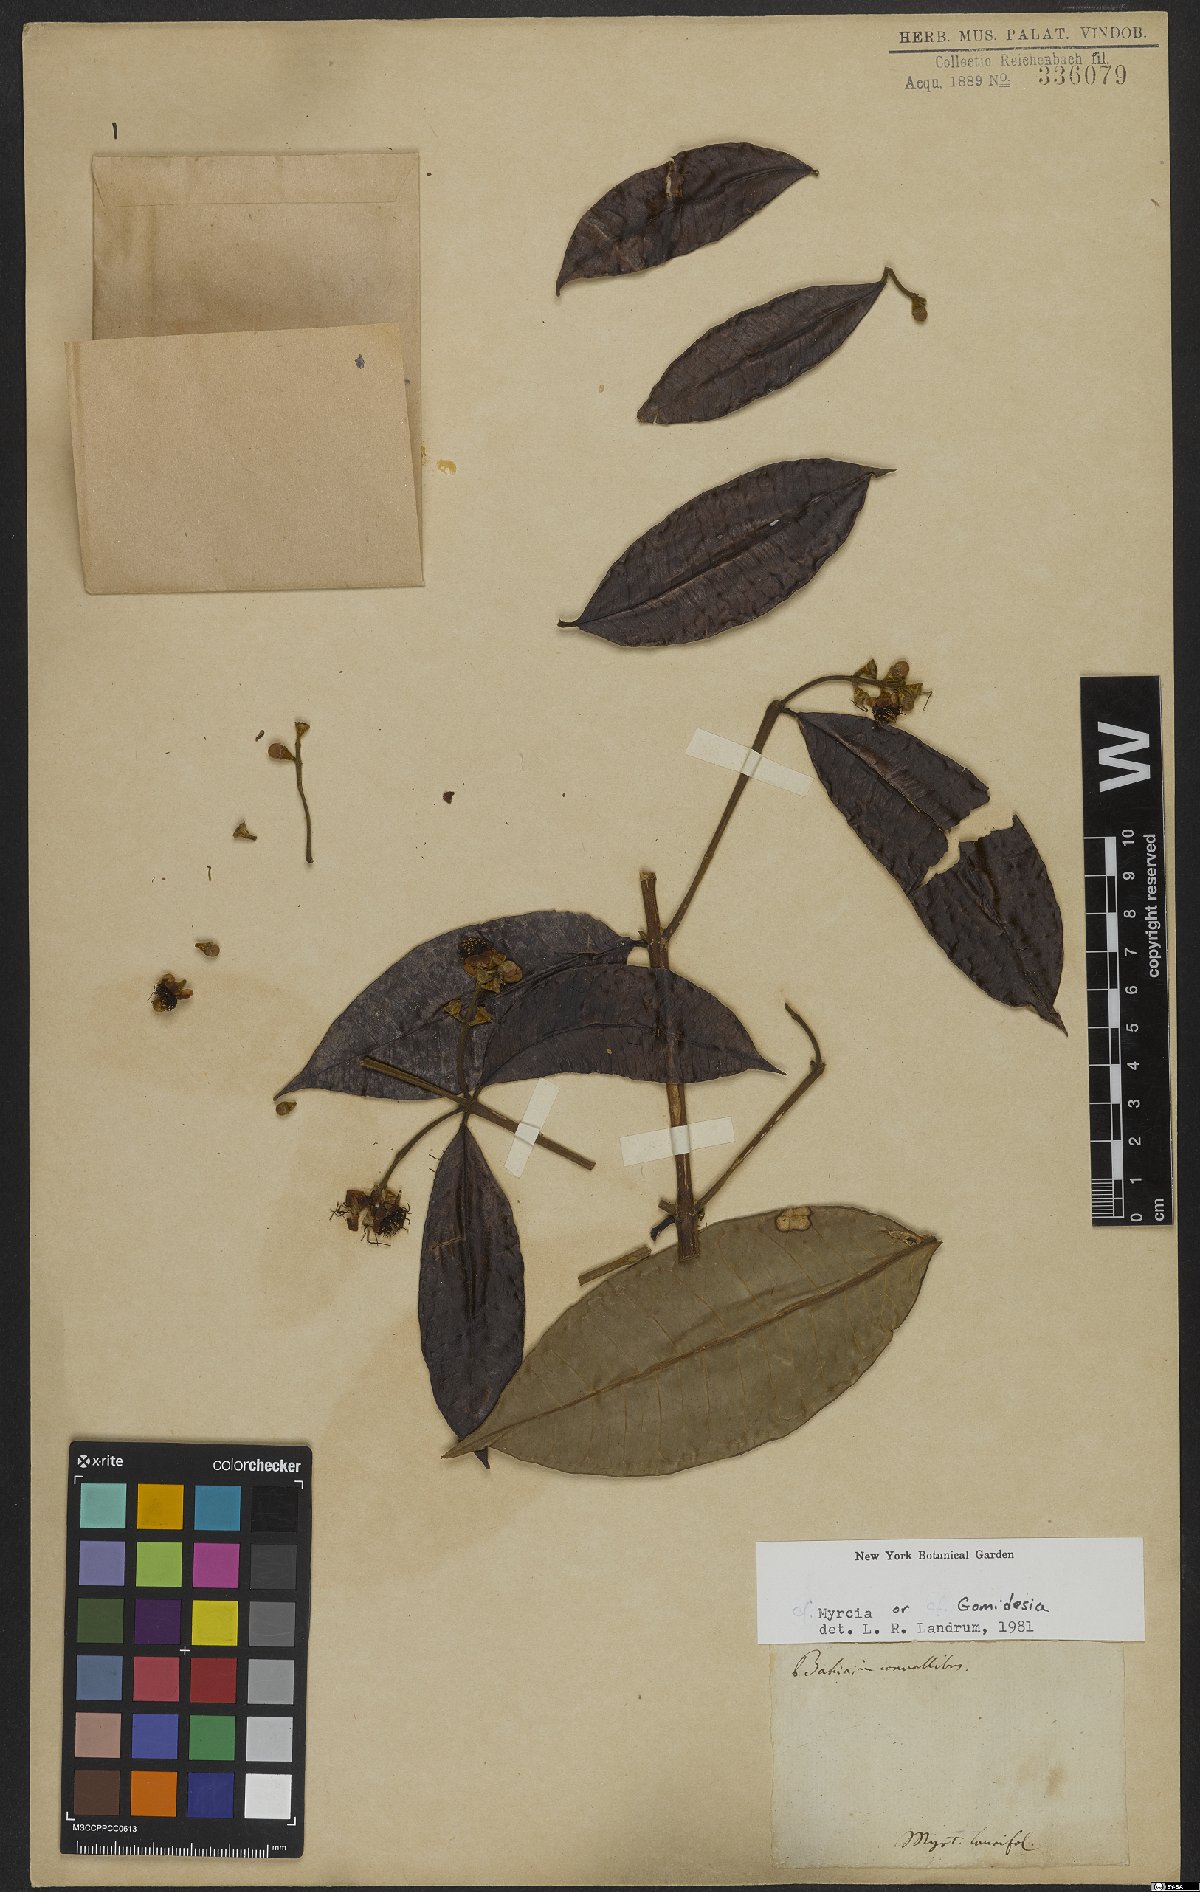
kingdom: Plantae
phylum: Tracheophyta
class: Magnoliopsida
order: Myrtales
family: Myrtaceae
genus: Myrcia
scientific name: Myrcia
